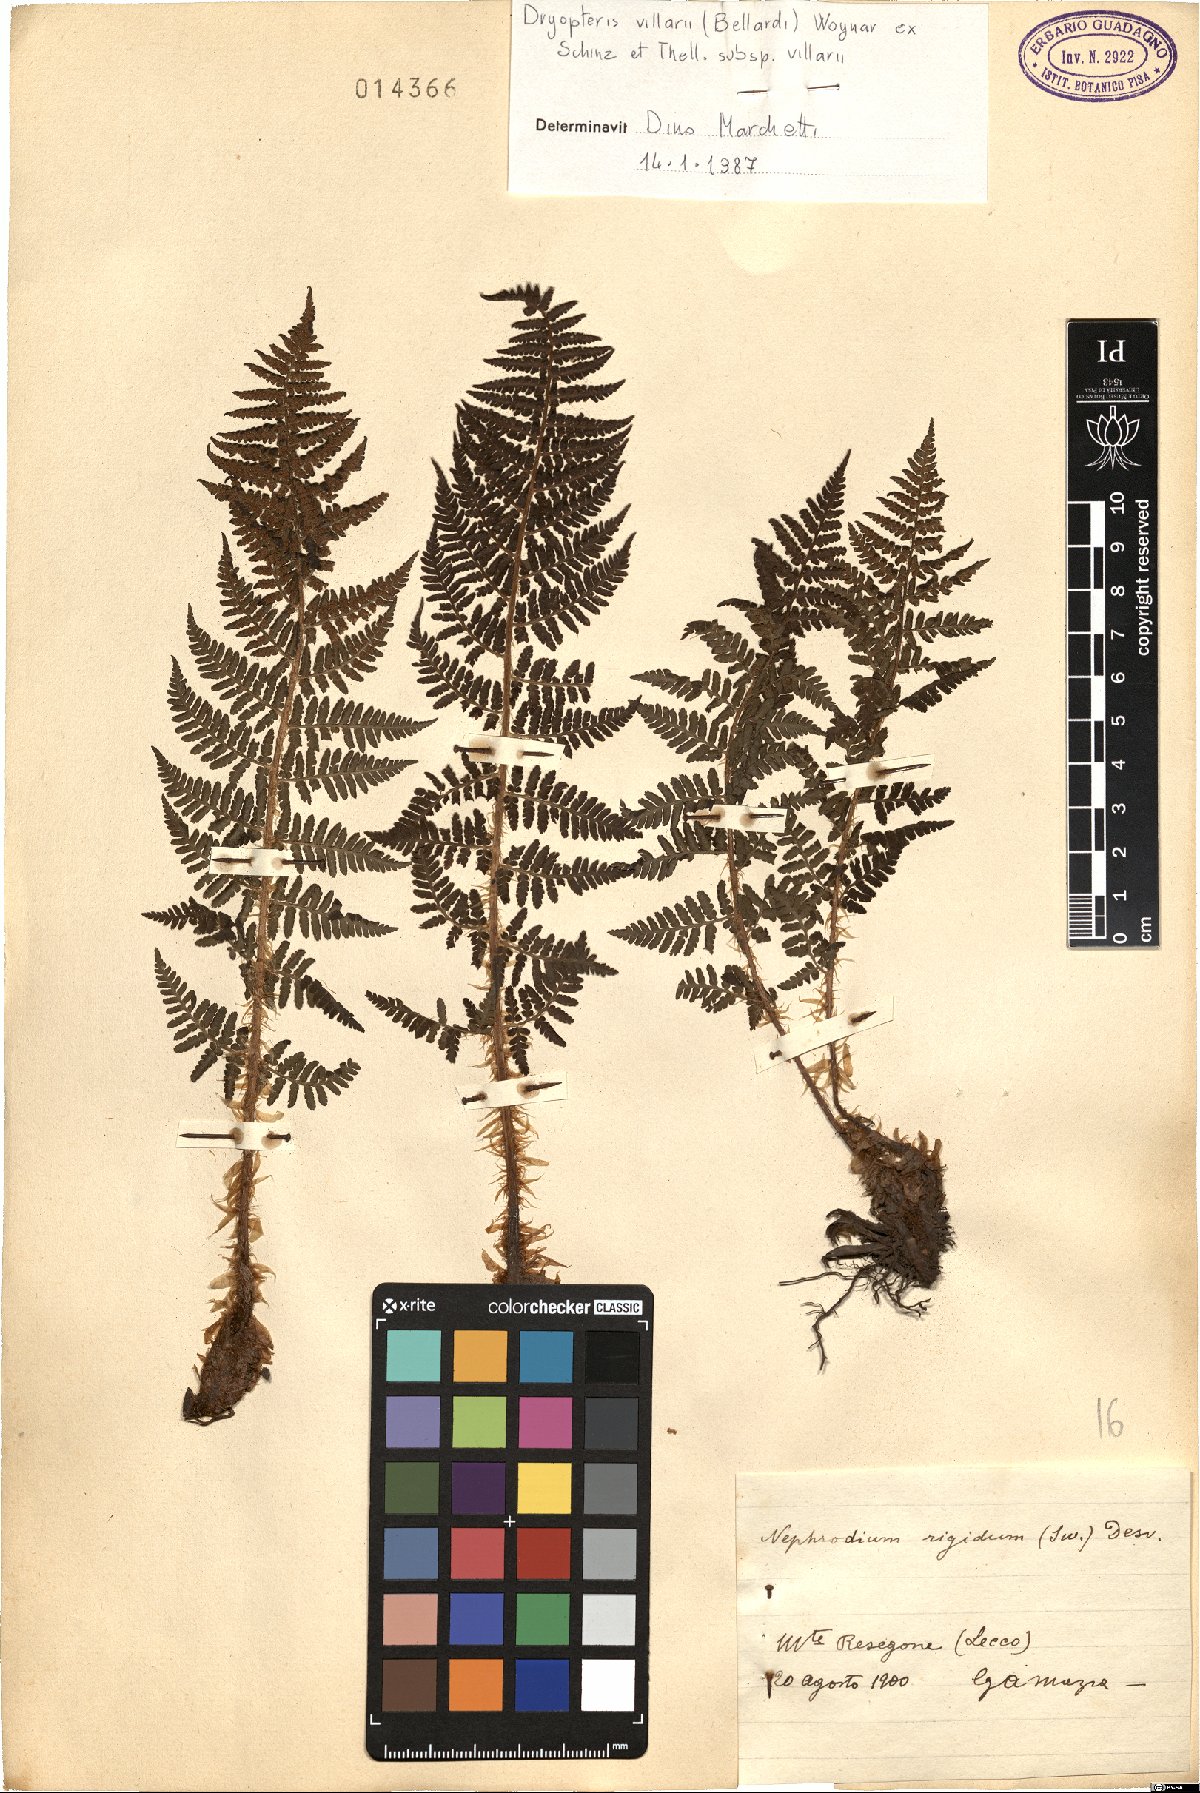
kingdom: Plantae
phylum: Tracheophyta
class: Polypodiopsida
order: Polypodiales
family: Dryopteridaceae
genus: Dryopteris
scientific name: Dryopteris villarii
